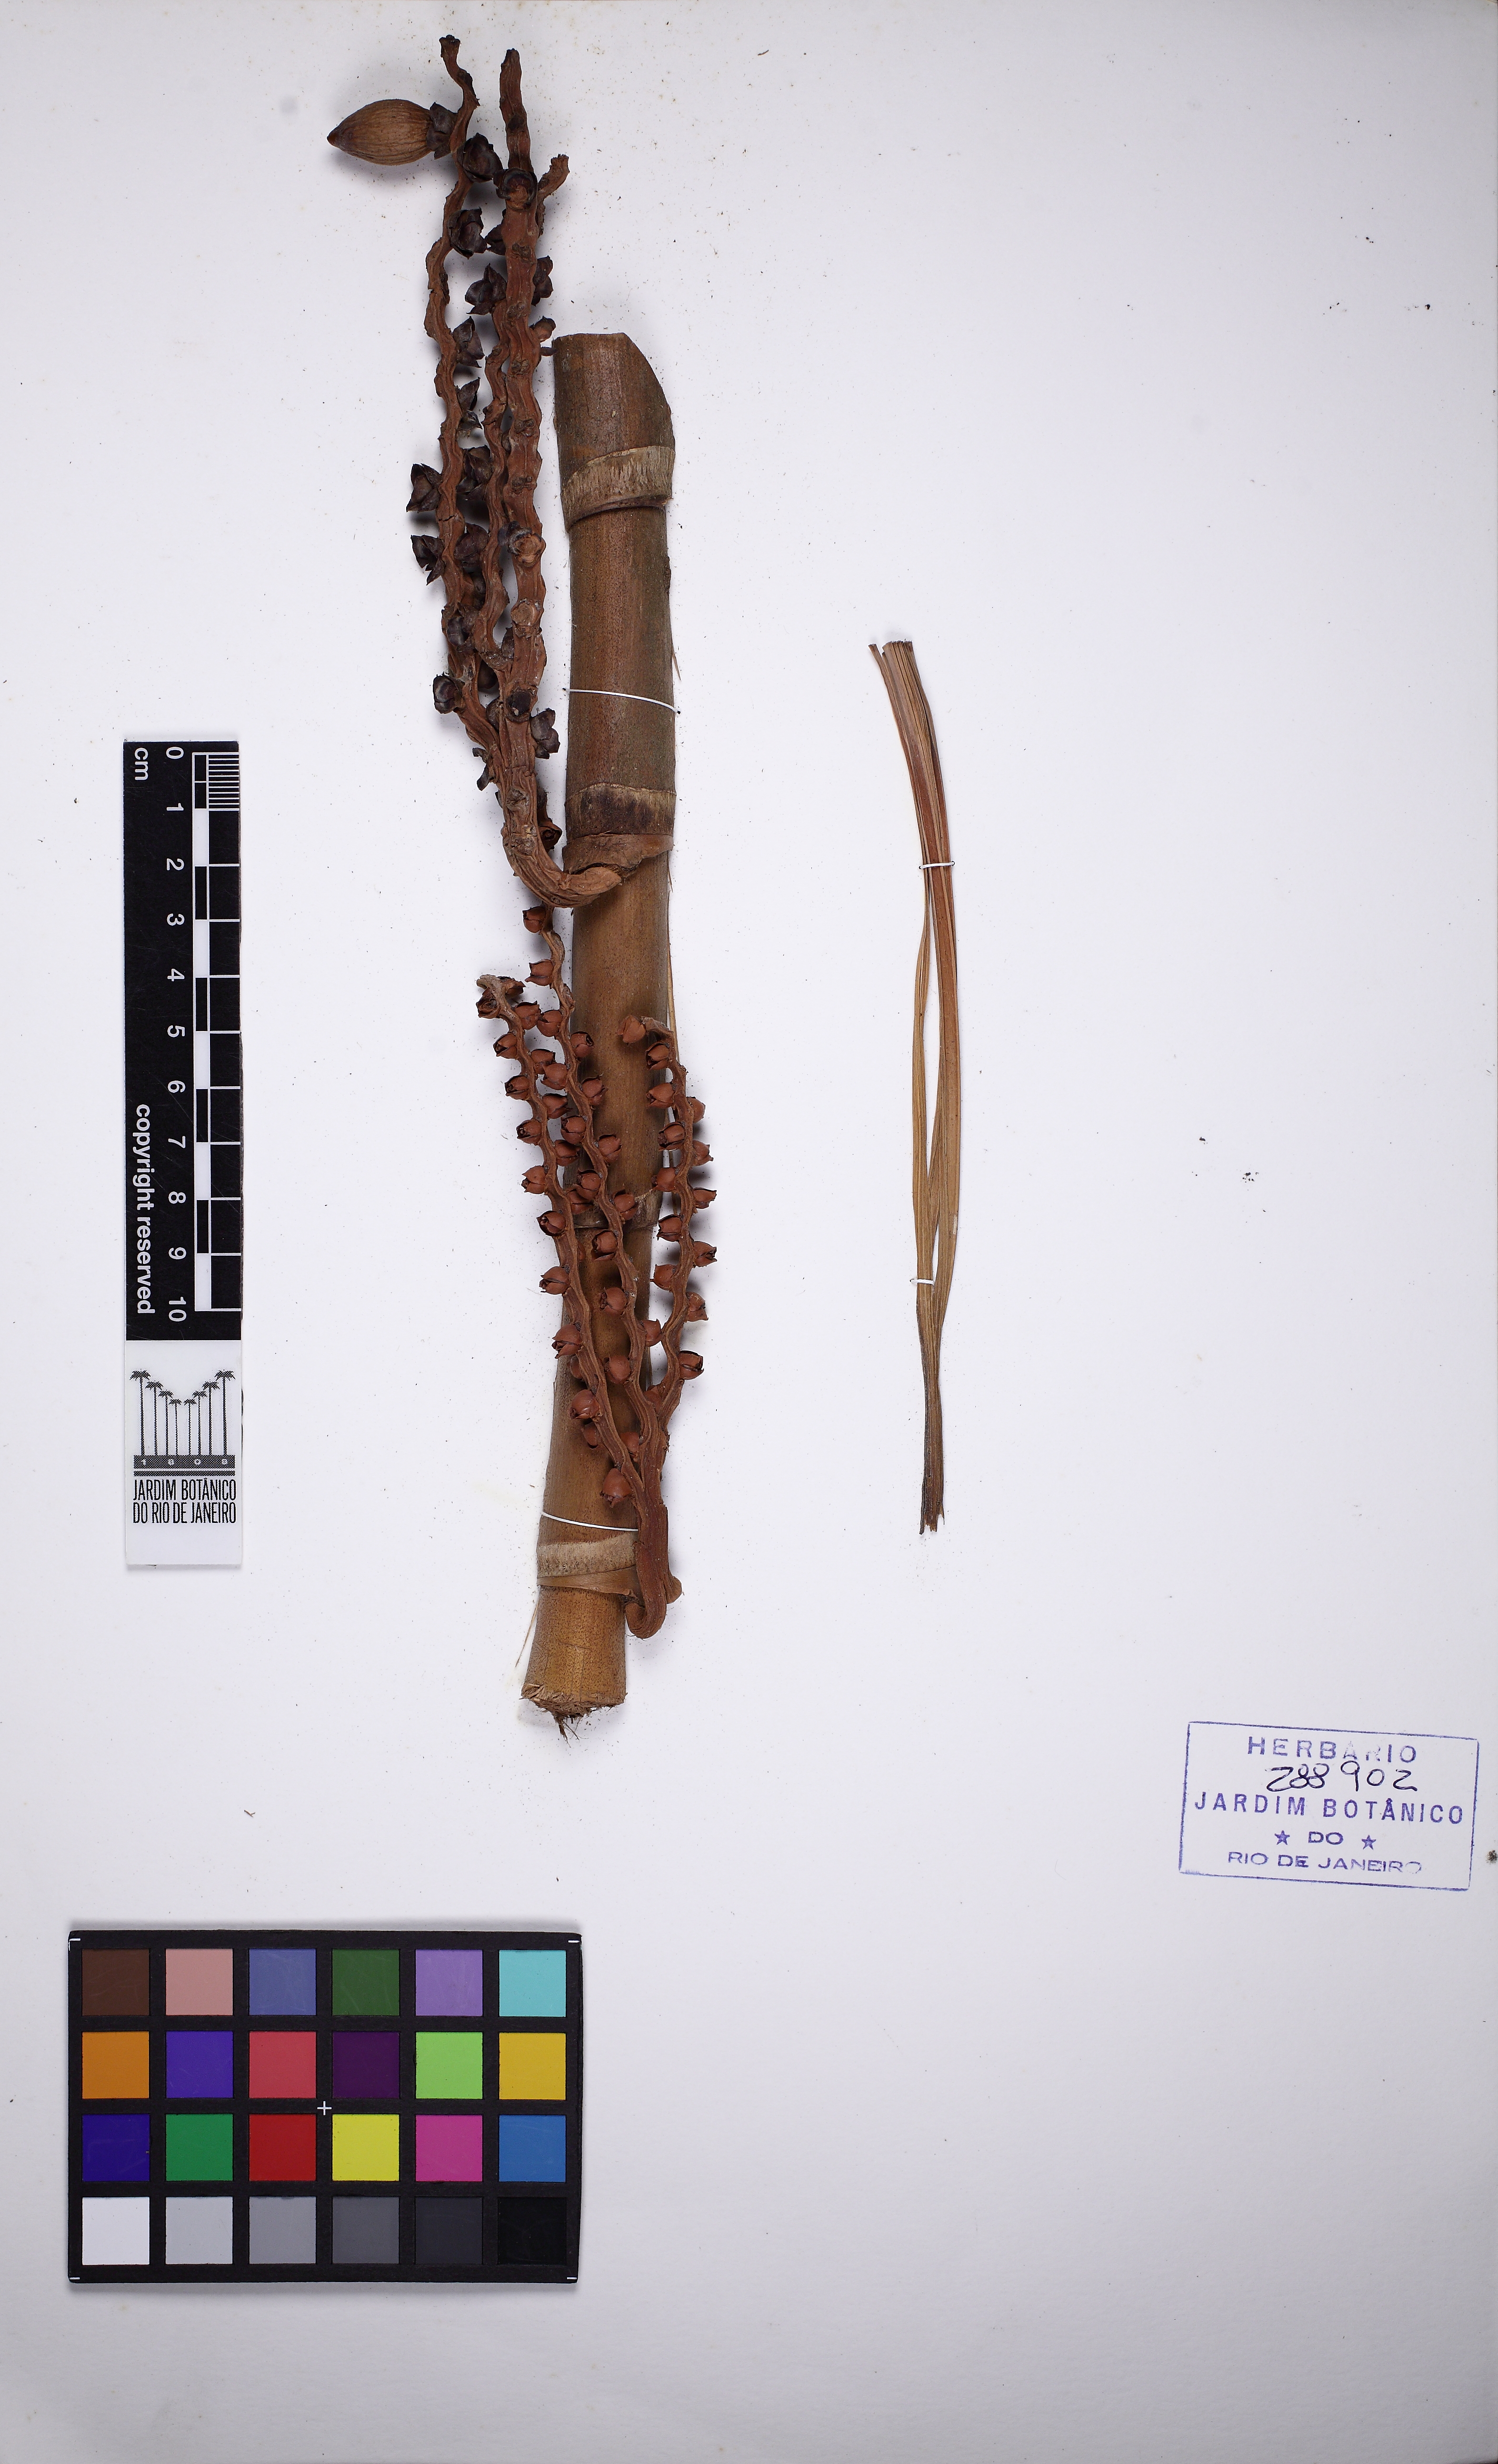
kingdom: Plantae
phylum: Tracheophyta
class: Liliopsida
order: Arecales
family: Arecaceae
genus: Pinanga
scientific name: Pinanga malaiana
